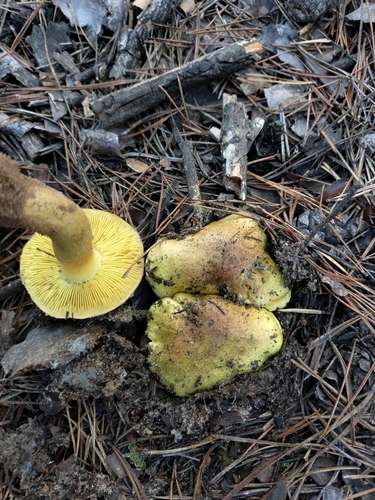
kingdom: Fungi
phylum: Basidiomycota
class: Agaricomycetes
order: Agaricales
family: Tricholomataceae
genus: Tricholoma
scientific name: Tricholoma equestre
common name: Yellow knight
